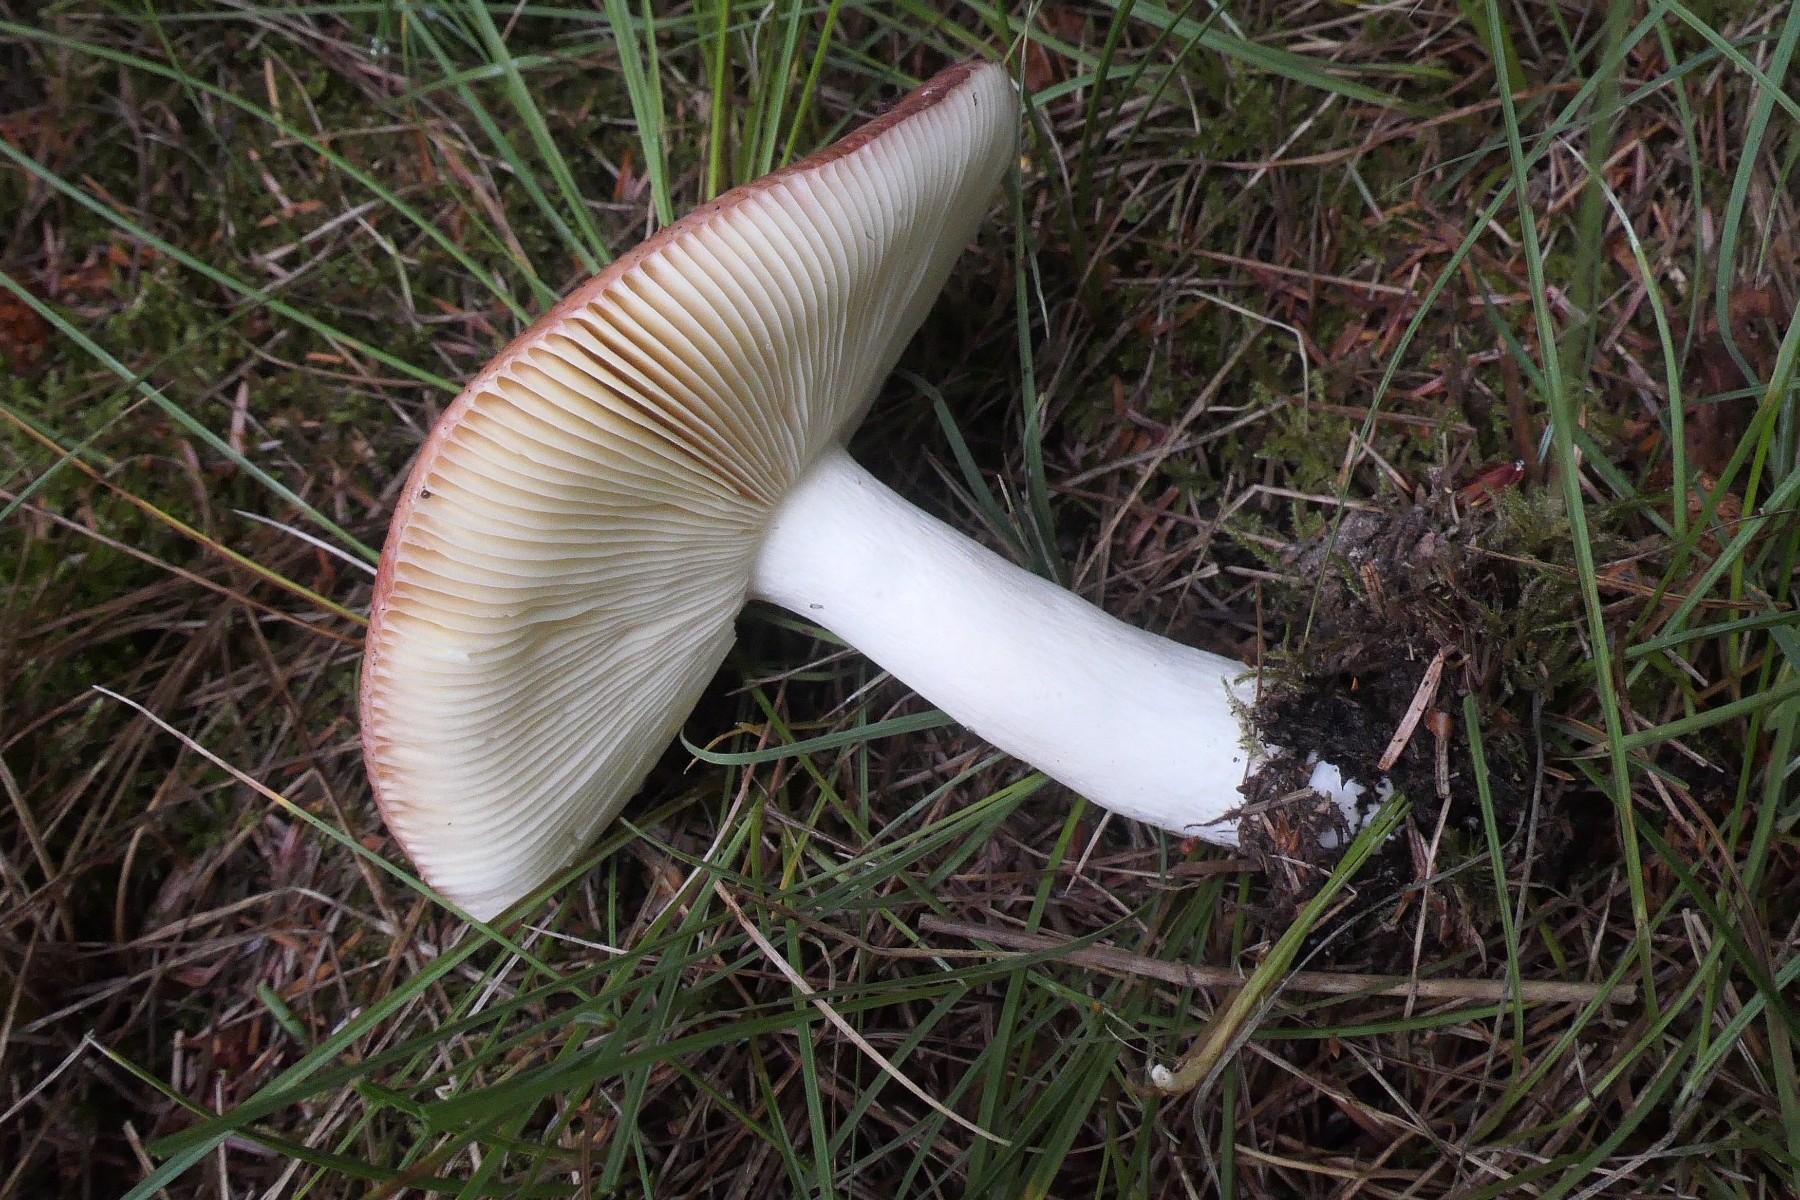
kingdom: Fungi
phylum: Basidiomycota
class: Agaricomycetes
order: Russulales
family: Russulaceae
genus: Russula
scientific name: Russula paludosa
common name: prægtig skørhat
